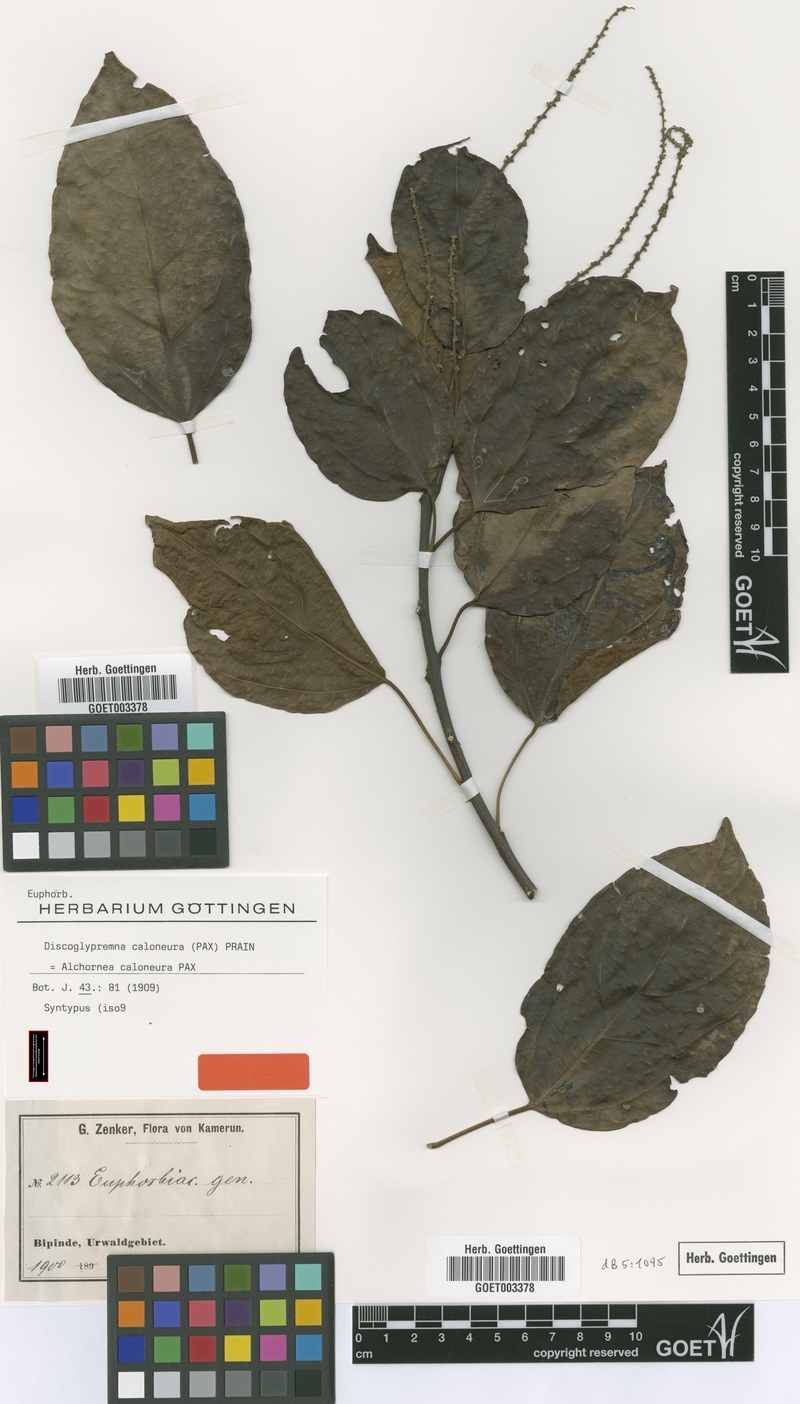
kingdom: Plantae
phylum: Tracheophyta
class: Magnoliopsida
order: Malpighiales
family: Euphorbiaceae
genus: Discoglypremna
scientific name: Discoglypremna caloneura
